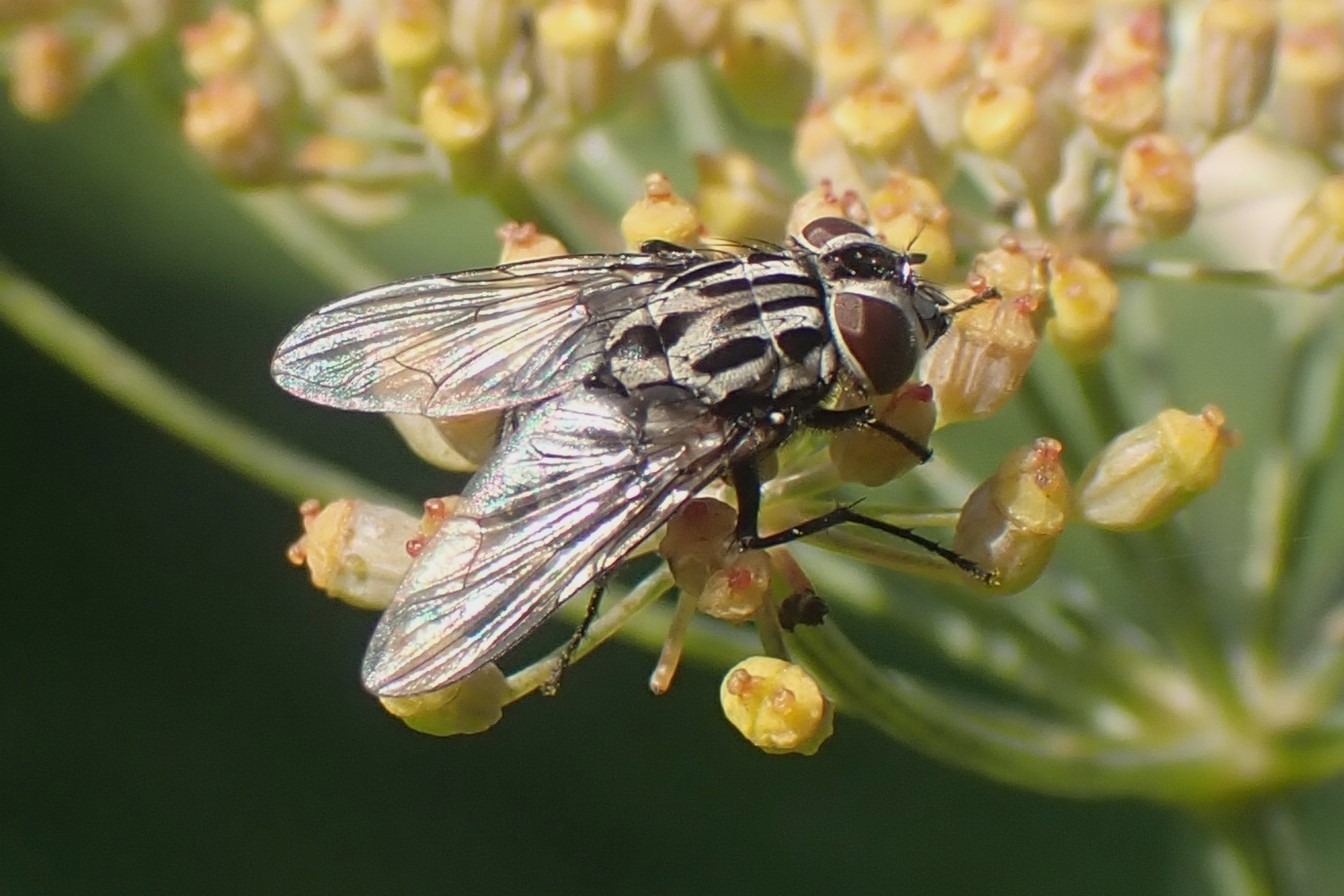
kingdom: Animalia
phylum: Arthropoda
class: Insecta
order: Diptera
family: Muscidae
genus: Graphomya
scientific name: Graphomya maculata
